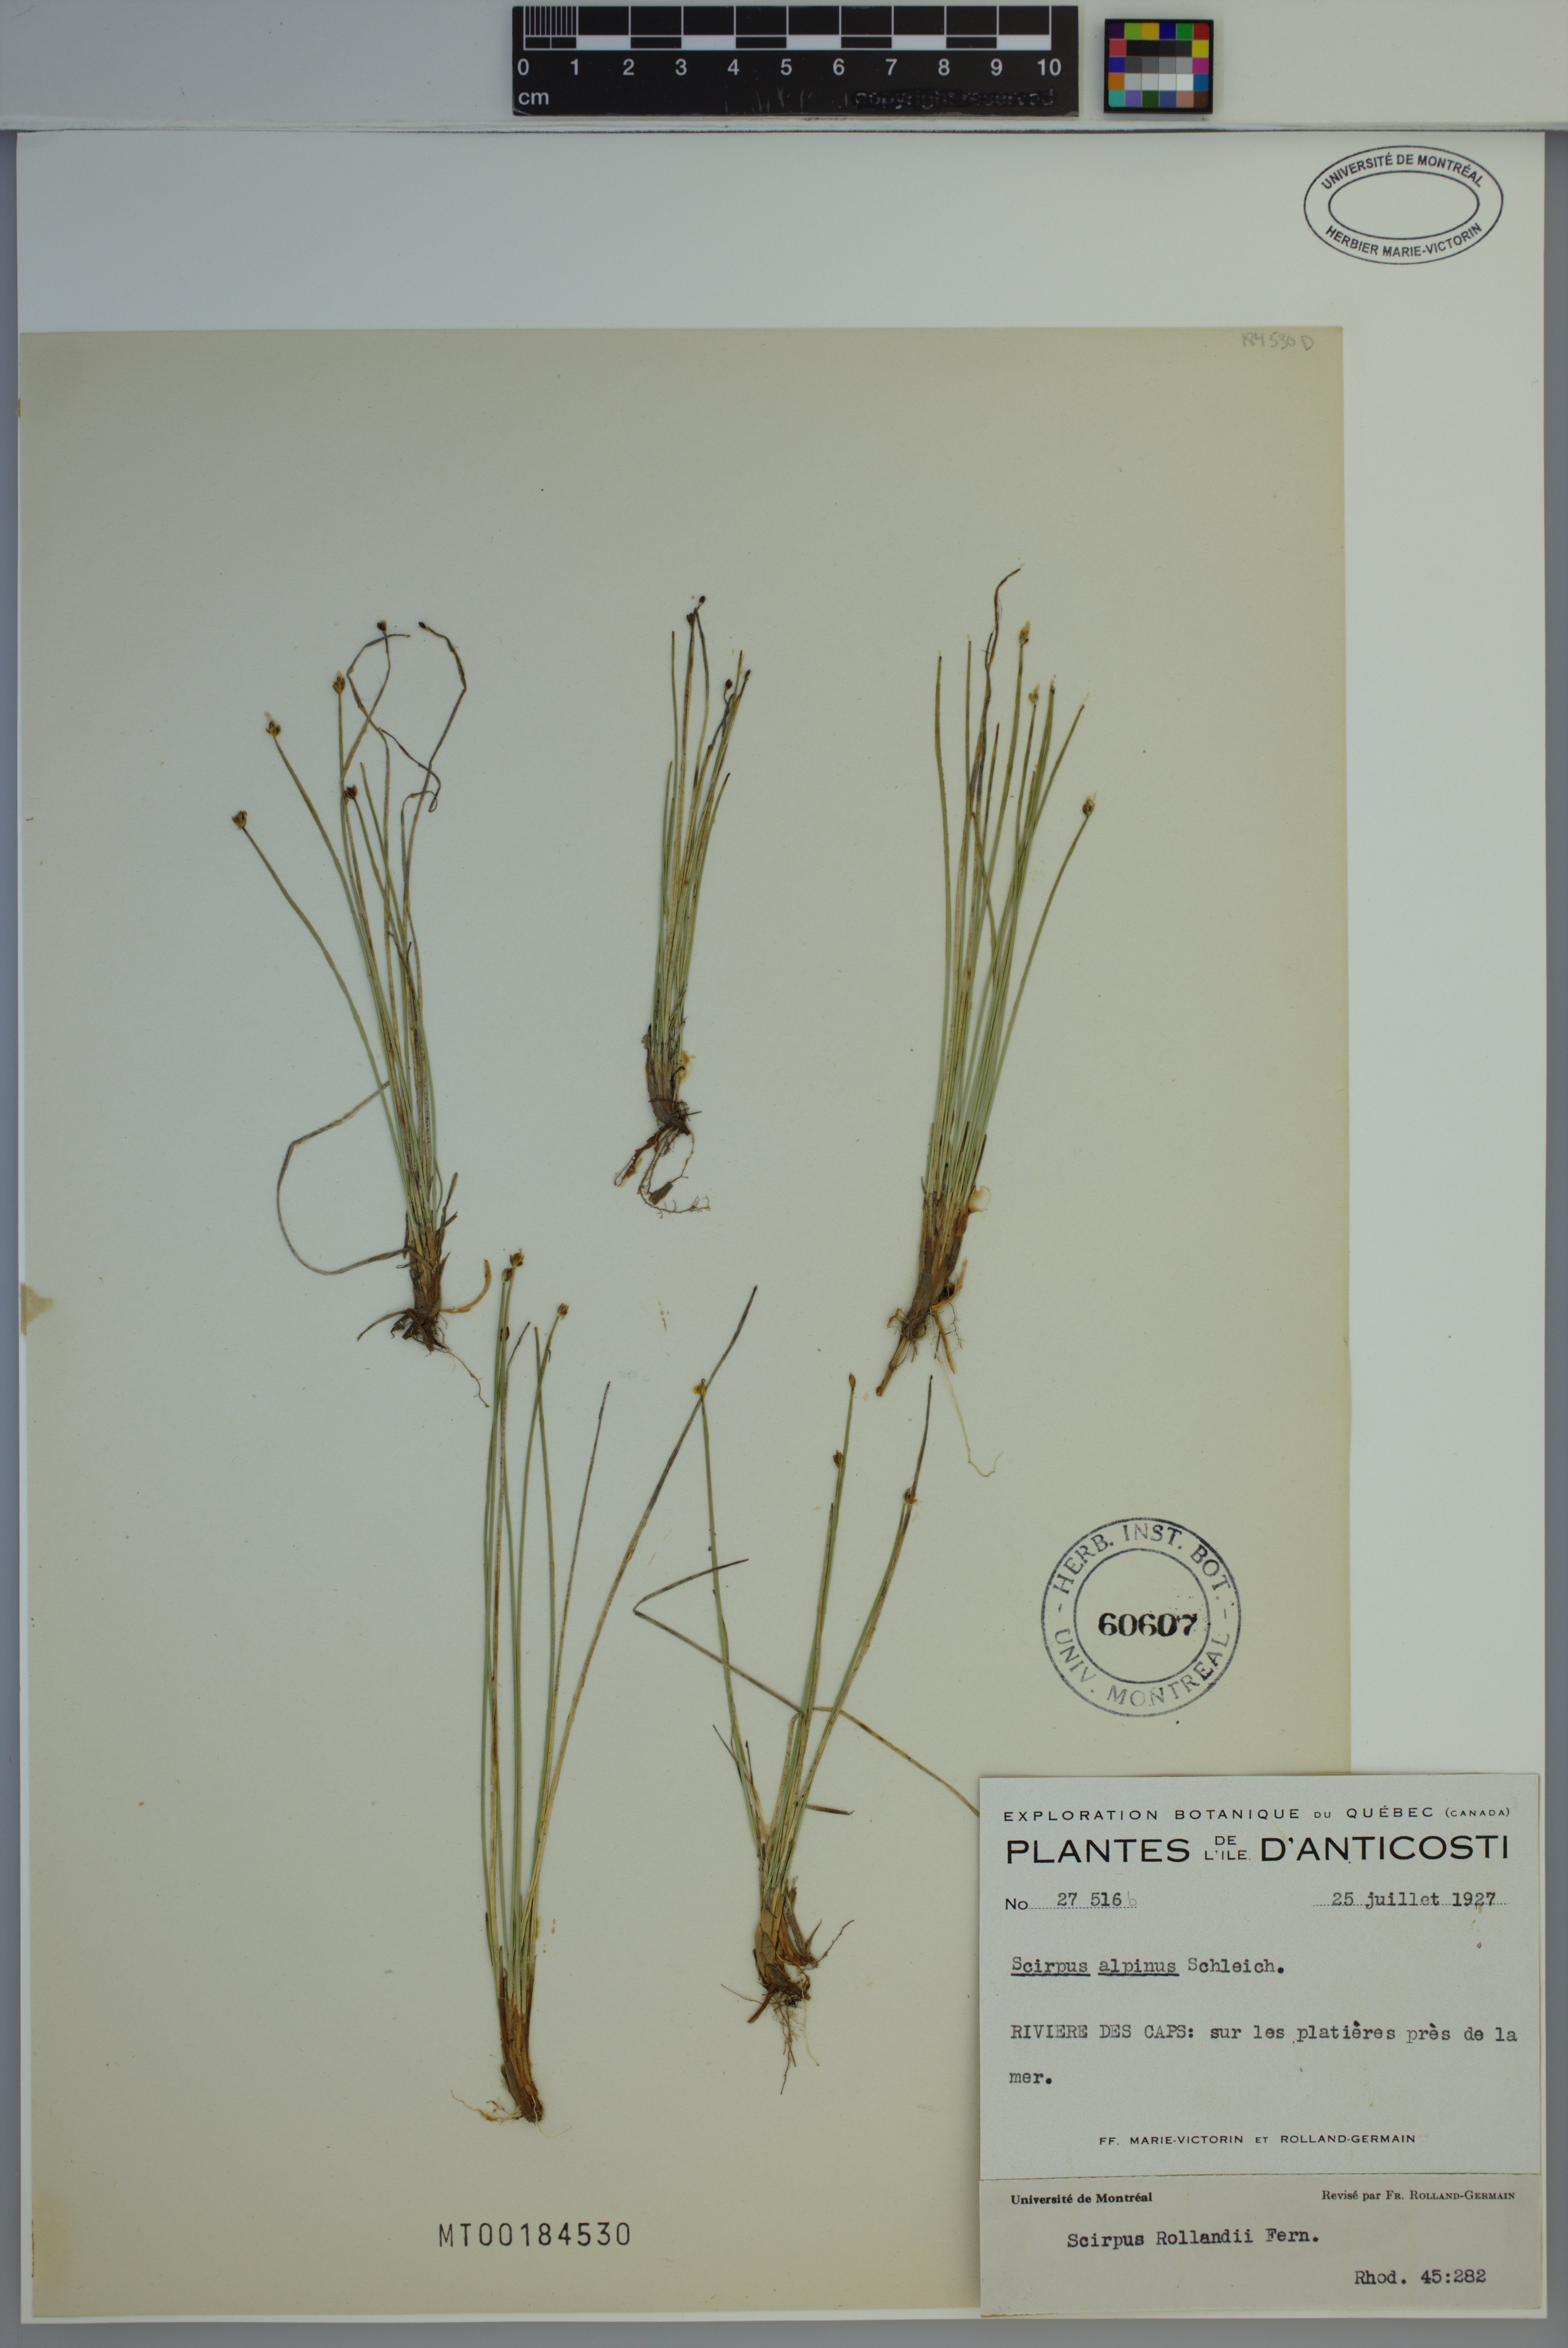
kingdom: Plantae
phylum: Tracheophyta
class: Liliopsida
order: Poales
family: Cyperaceae
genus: Trichophorum
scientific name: Trichophorum pumilum
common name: Rolland's bulrush
